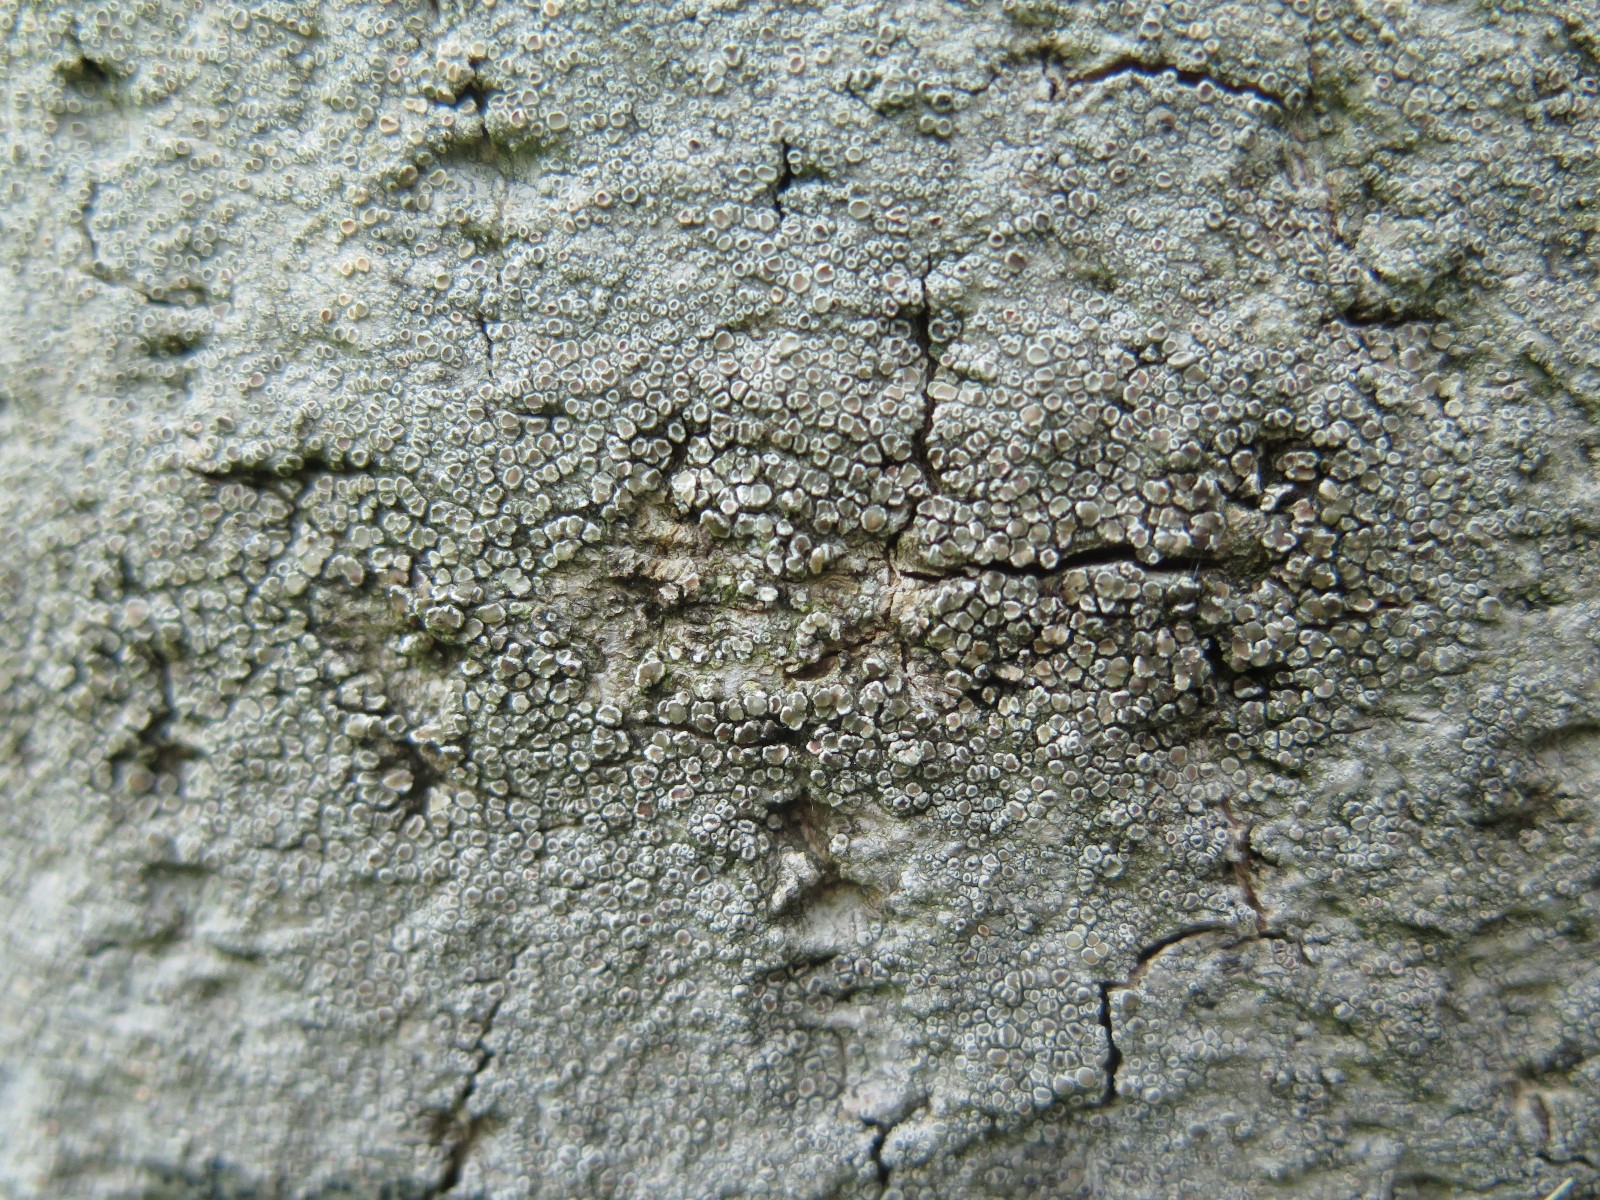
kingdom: Fungi
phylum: Ascomycota
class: Lecanoromycetes
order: Lecanorales
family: Lecanoraceae
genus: Lecanora
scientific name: Lecanora chlarotera
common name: brun kantskivelav
